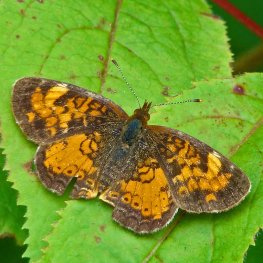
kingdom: Animalia
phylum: Arthropoda
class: Insecta
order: Lepidoptera
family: Nymphalidae
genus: Phyciodes
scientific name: Phyciodes tharos
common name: Northern Crescent
